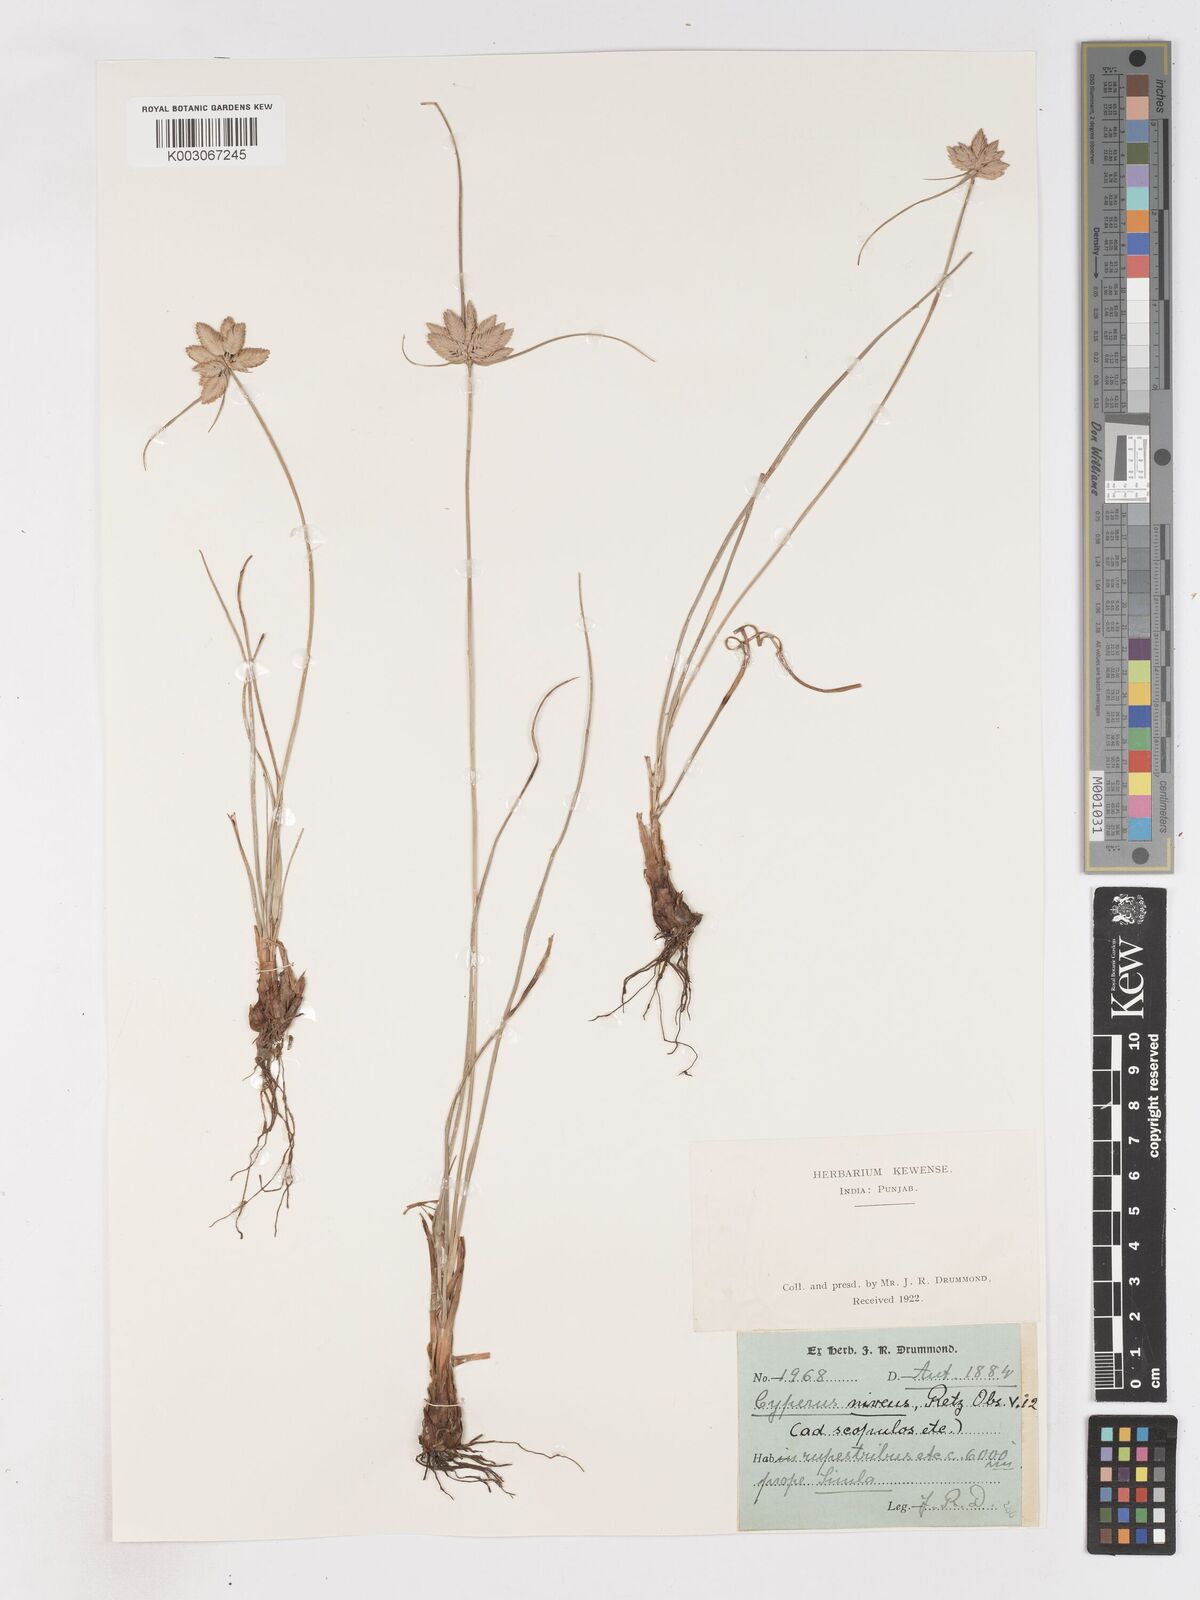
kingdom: Plantae
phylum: Tracheophyta
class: Liliopsida
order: Poales
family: Cyperaceae
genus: Cyperus
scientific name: Cyperus niveus
